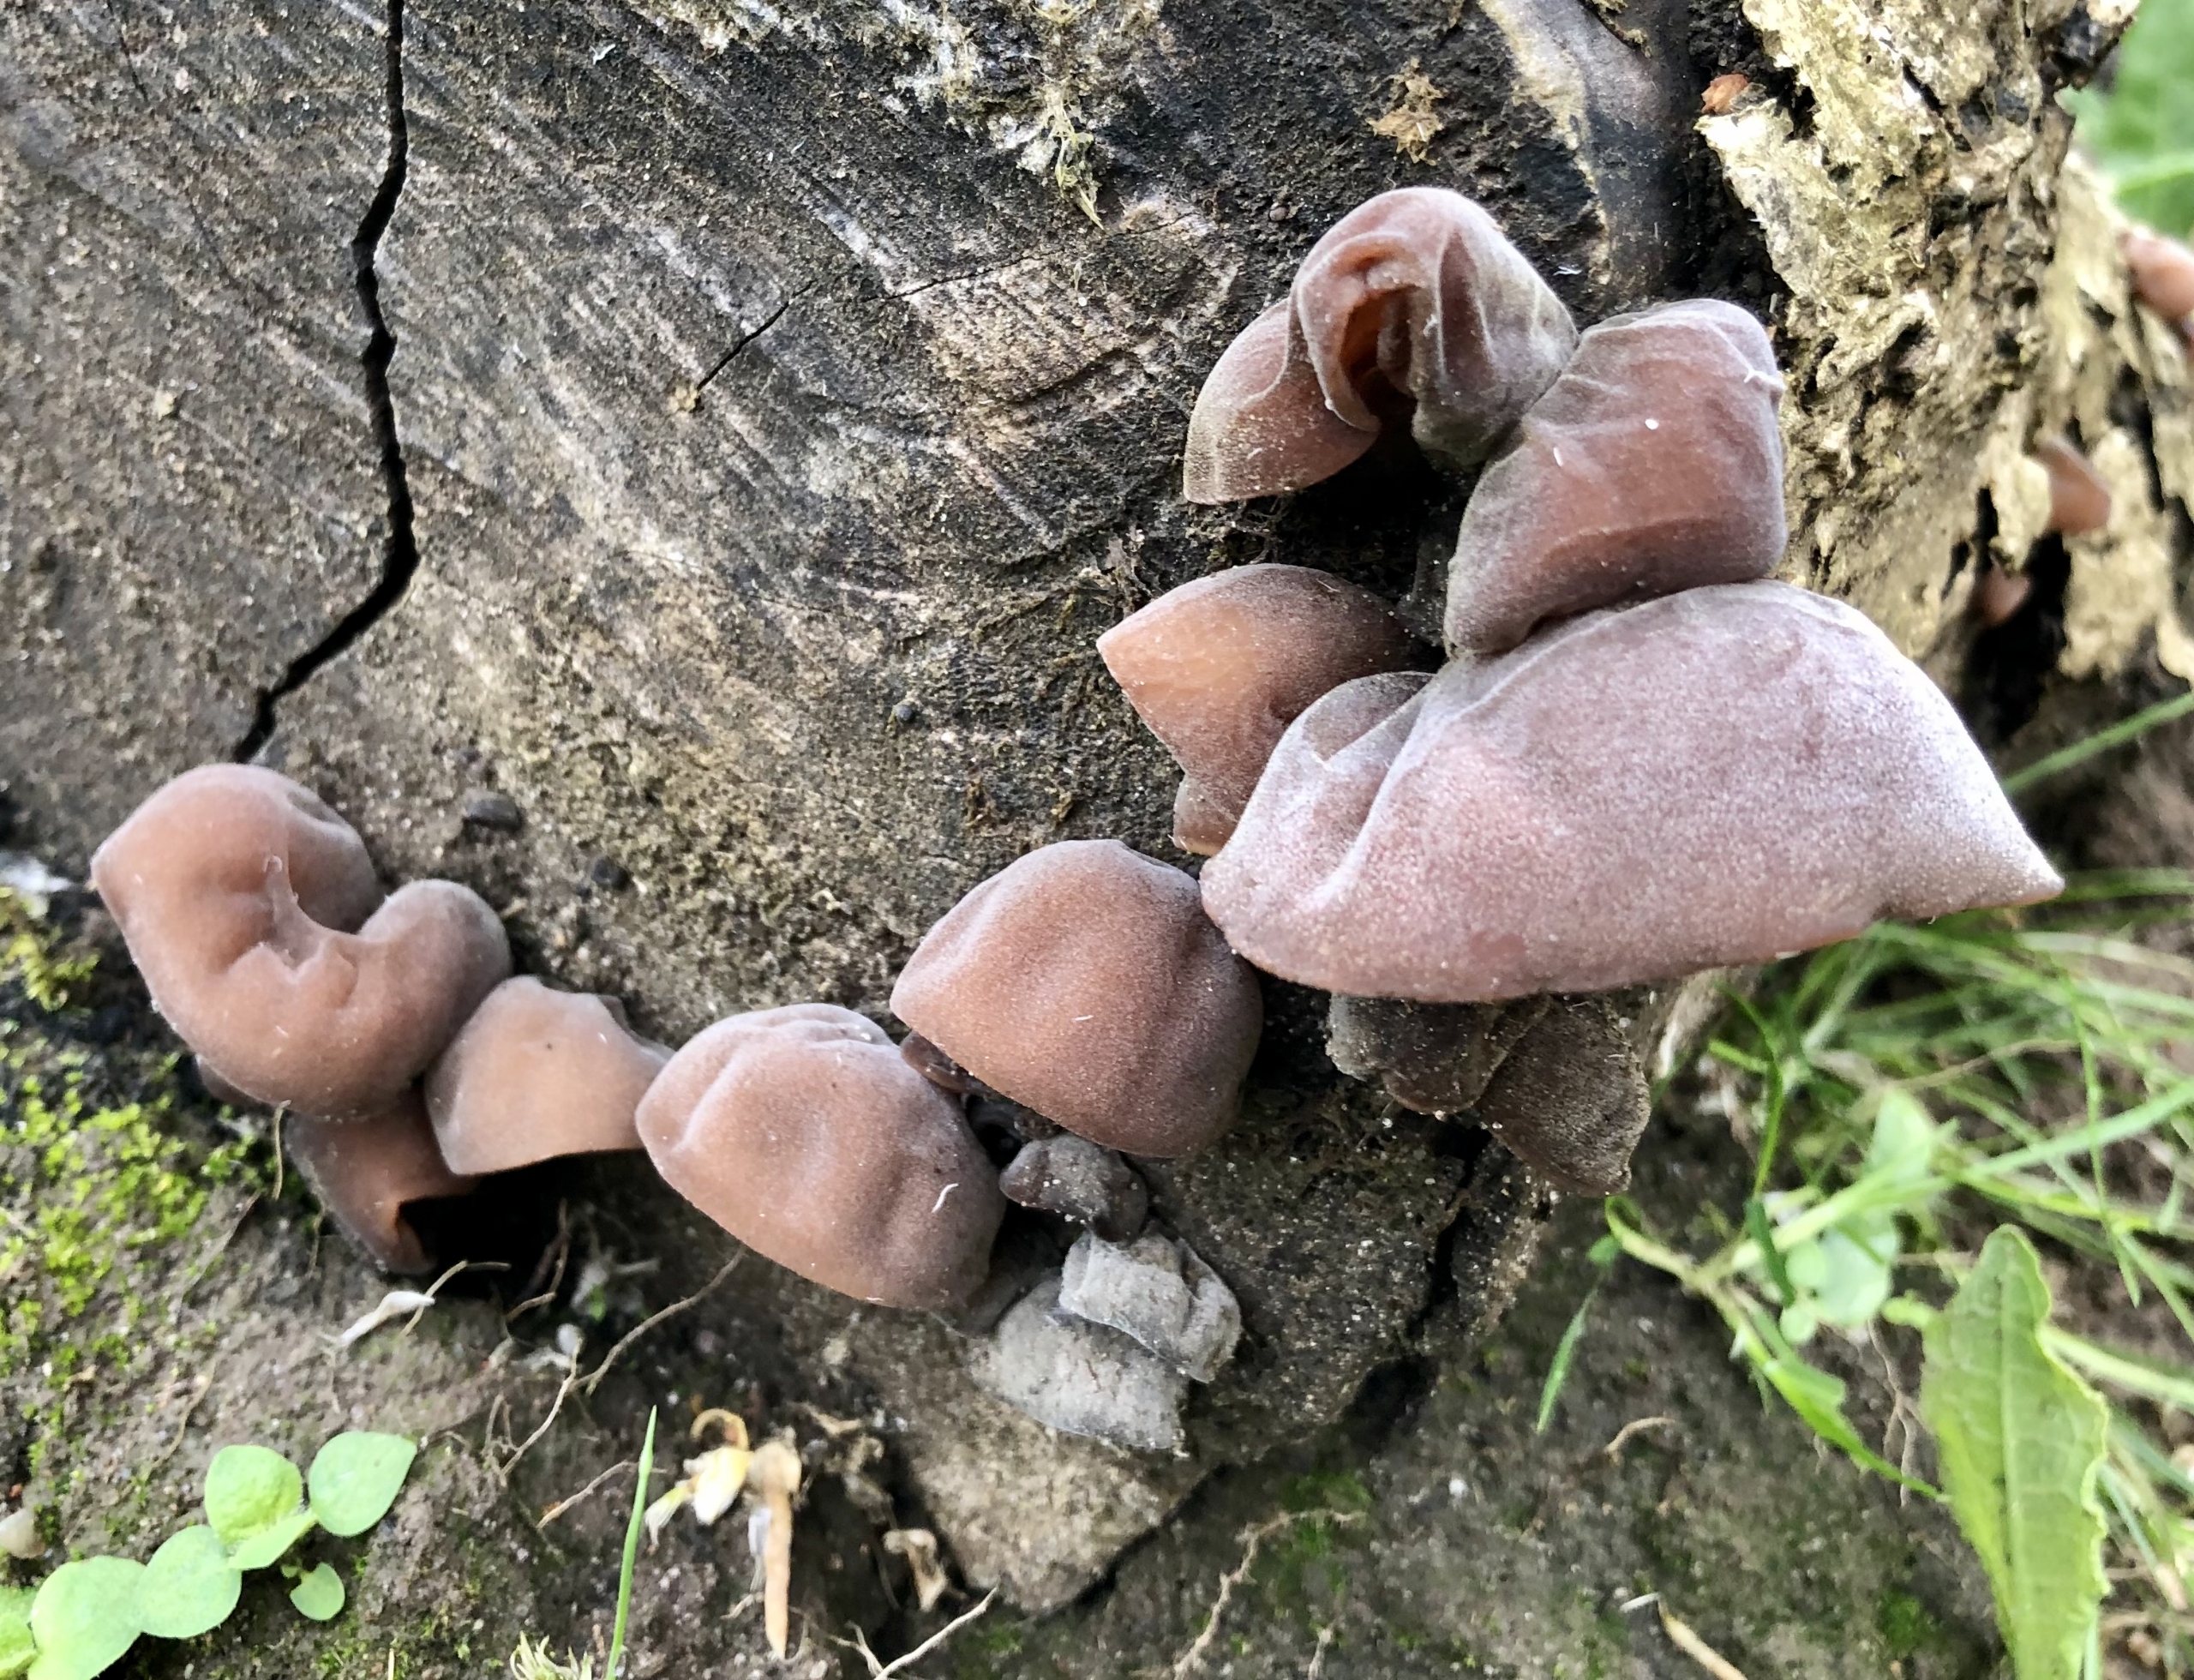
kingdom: Fungi
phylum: Basidiomycota
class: Agaricomycetes
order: Auriculariales
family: Auriculariaceae
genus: Auricularia
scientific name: Auricularia auricula-judae
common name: Almindelig judasøre
